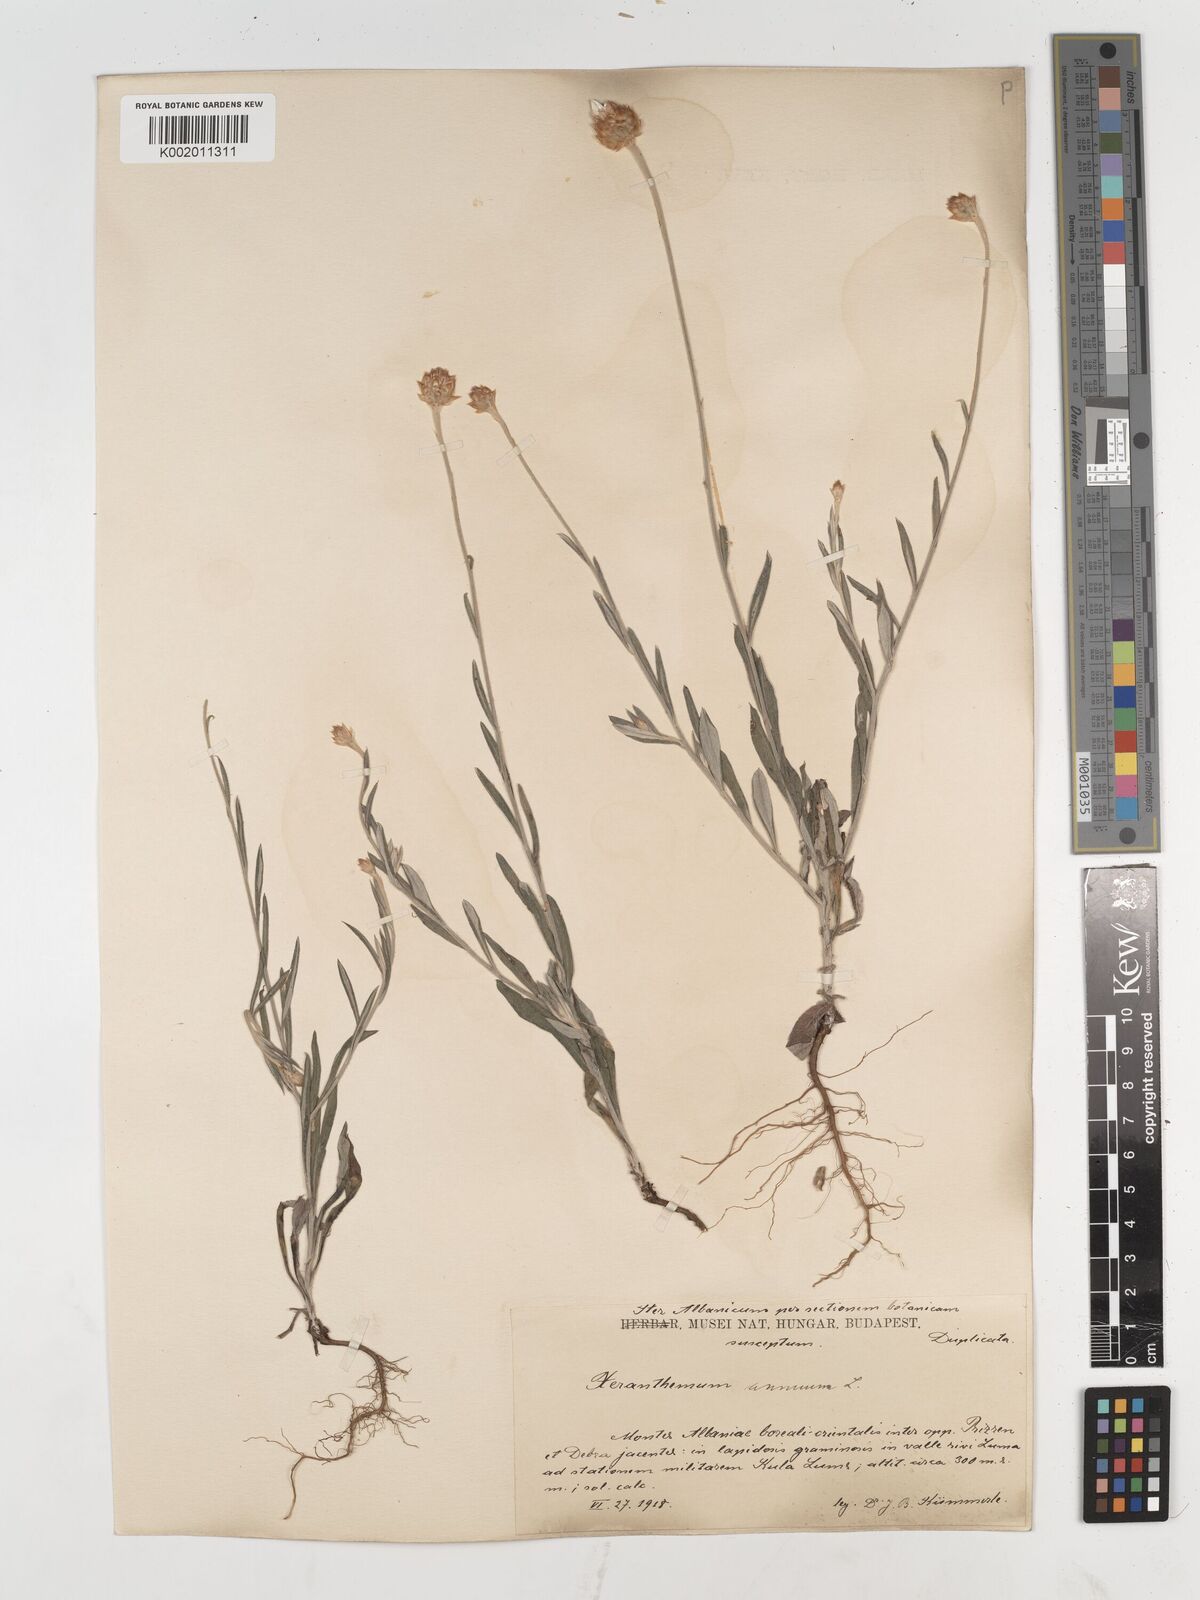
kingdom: Plantae
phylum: Tracheophyta
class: Magnoliopsida
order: Asterales
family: Asteraceae
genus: Xeranthemum
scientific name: Xeranthemum annuum
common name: Immortelle
